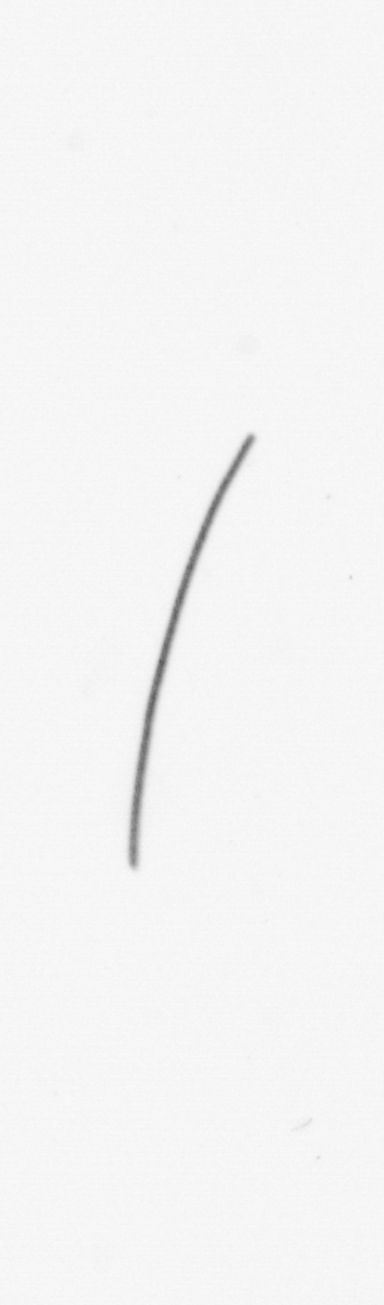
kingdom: Chromista
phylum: Ochrophyta
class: Bacillariophyceae
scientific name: Bacillariophyceae
